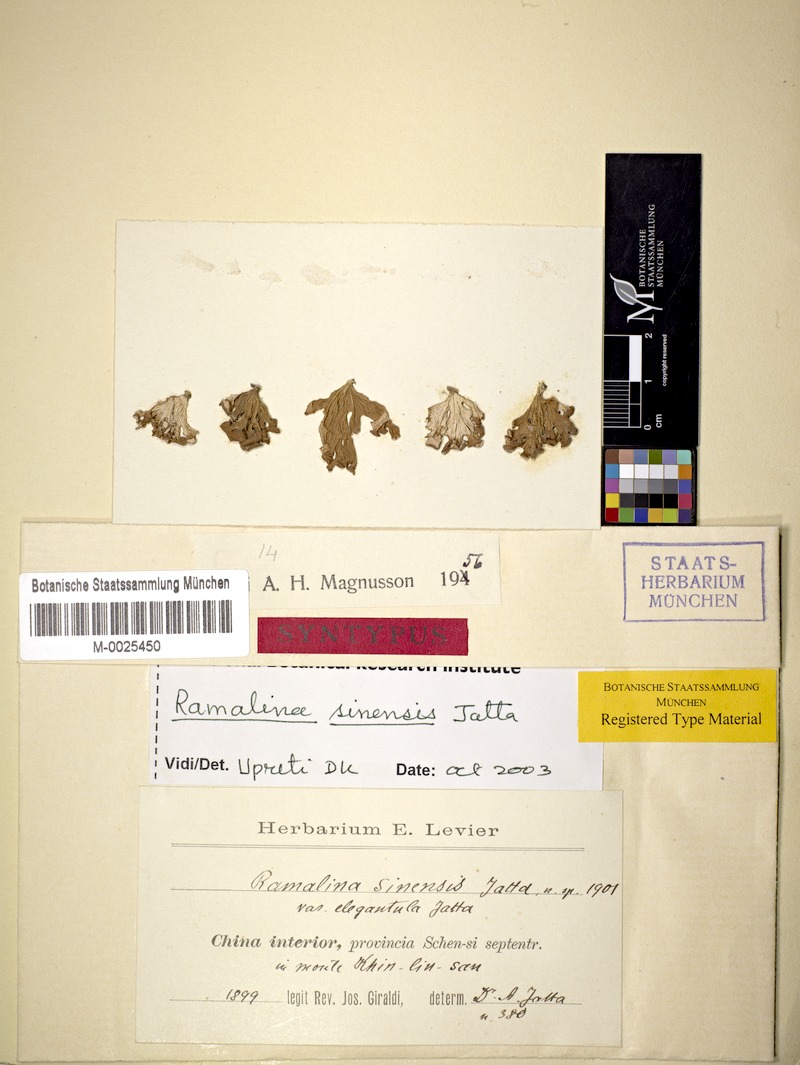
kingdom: Fungi
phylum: Ascomycota
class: Lecanoromycetes
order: Lecanorales
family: Ramalinaceae
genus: Ramalina
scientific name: Ramalina sinensis
